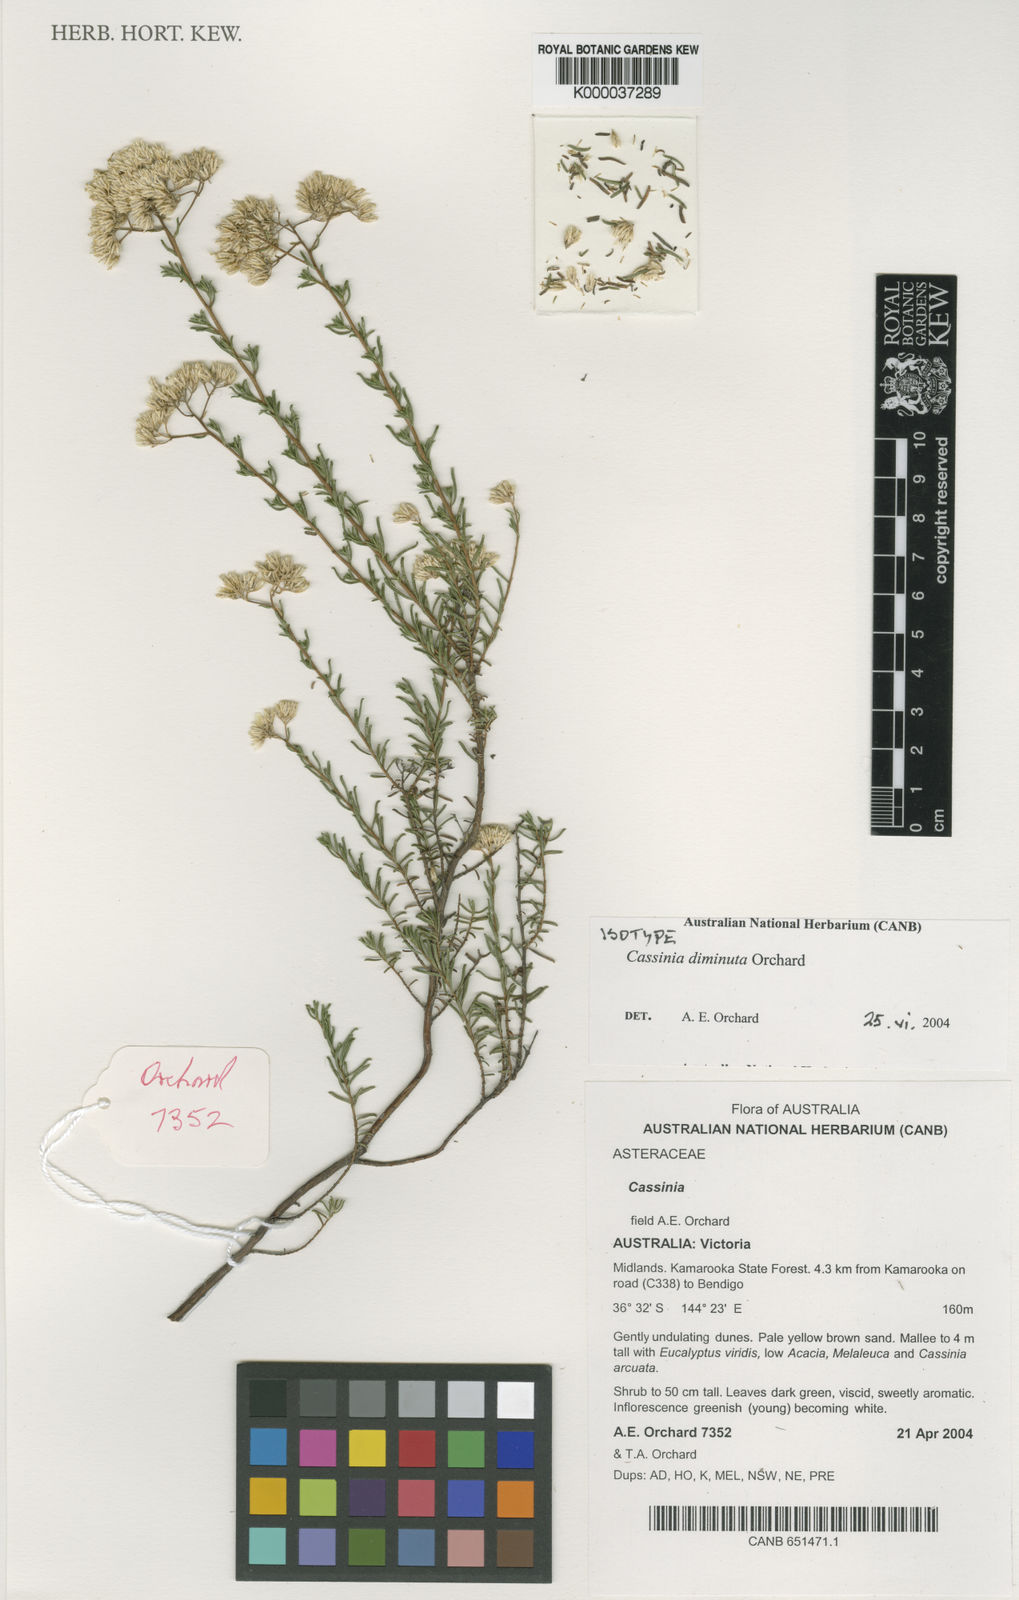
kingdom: Plantae
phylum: Tracheophyta
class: Magnoliopsida
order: Asterales
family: Asteraceae
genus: Cassinia
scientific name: Cassinia diminuta
